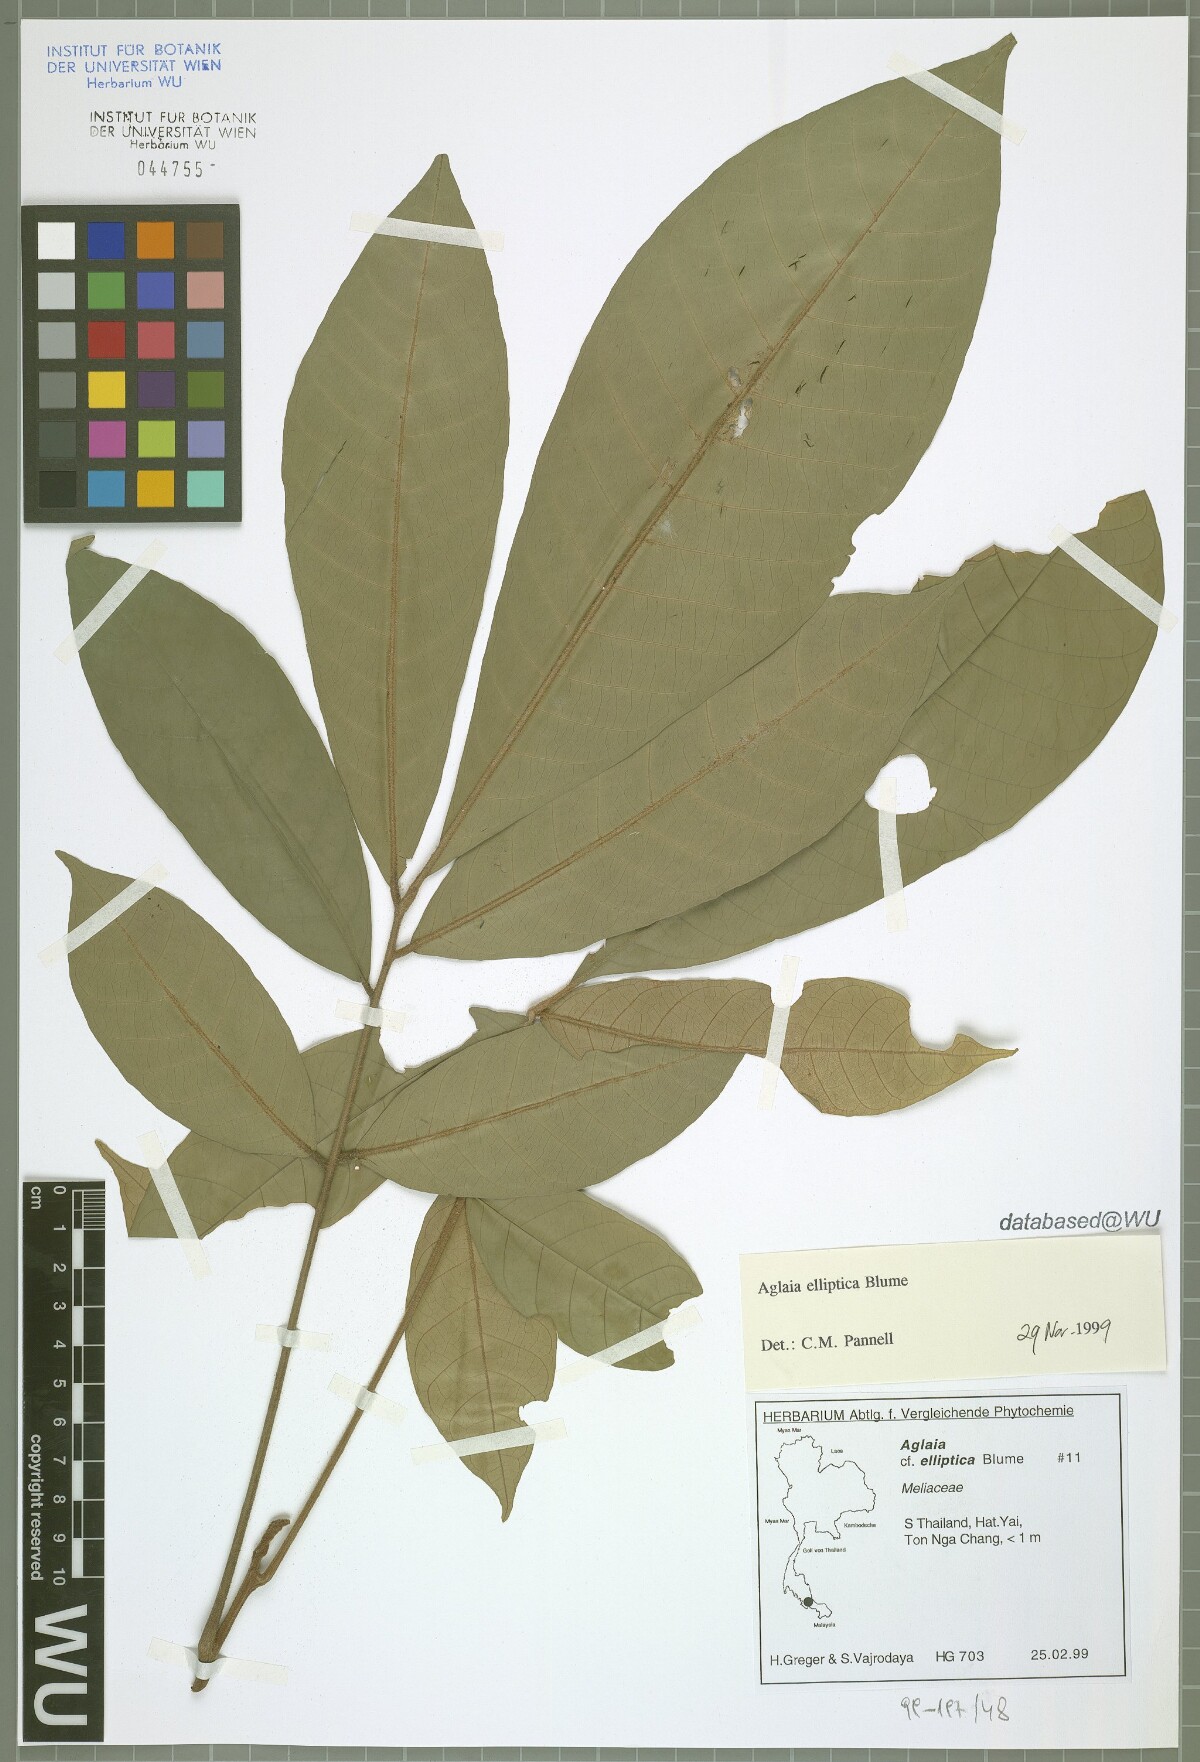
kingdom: Plantae
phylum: Tracheophyta
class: Magnoliopsida
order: Sapindales
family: Meliaceae
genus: Aglaia
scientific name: Aglaia elliptica
